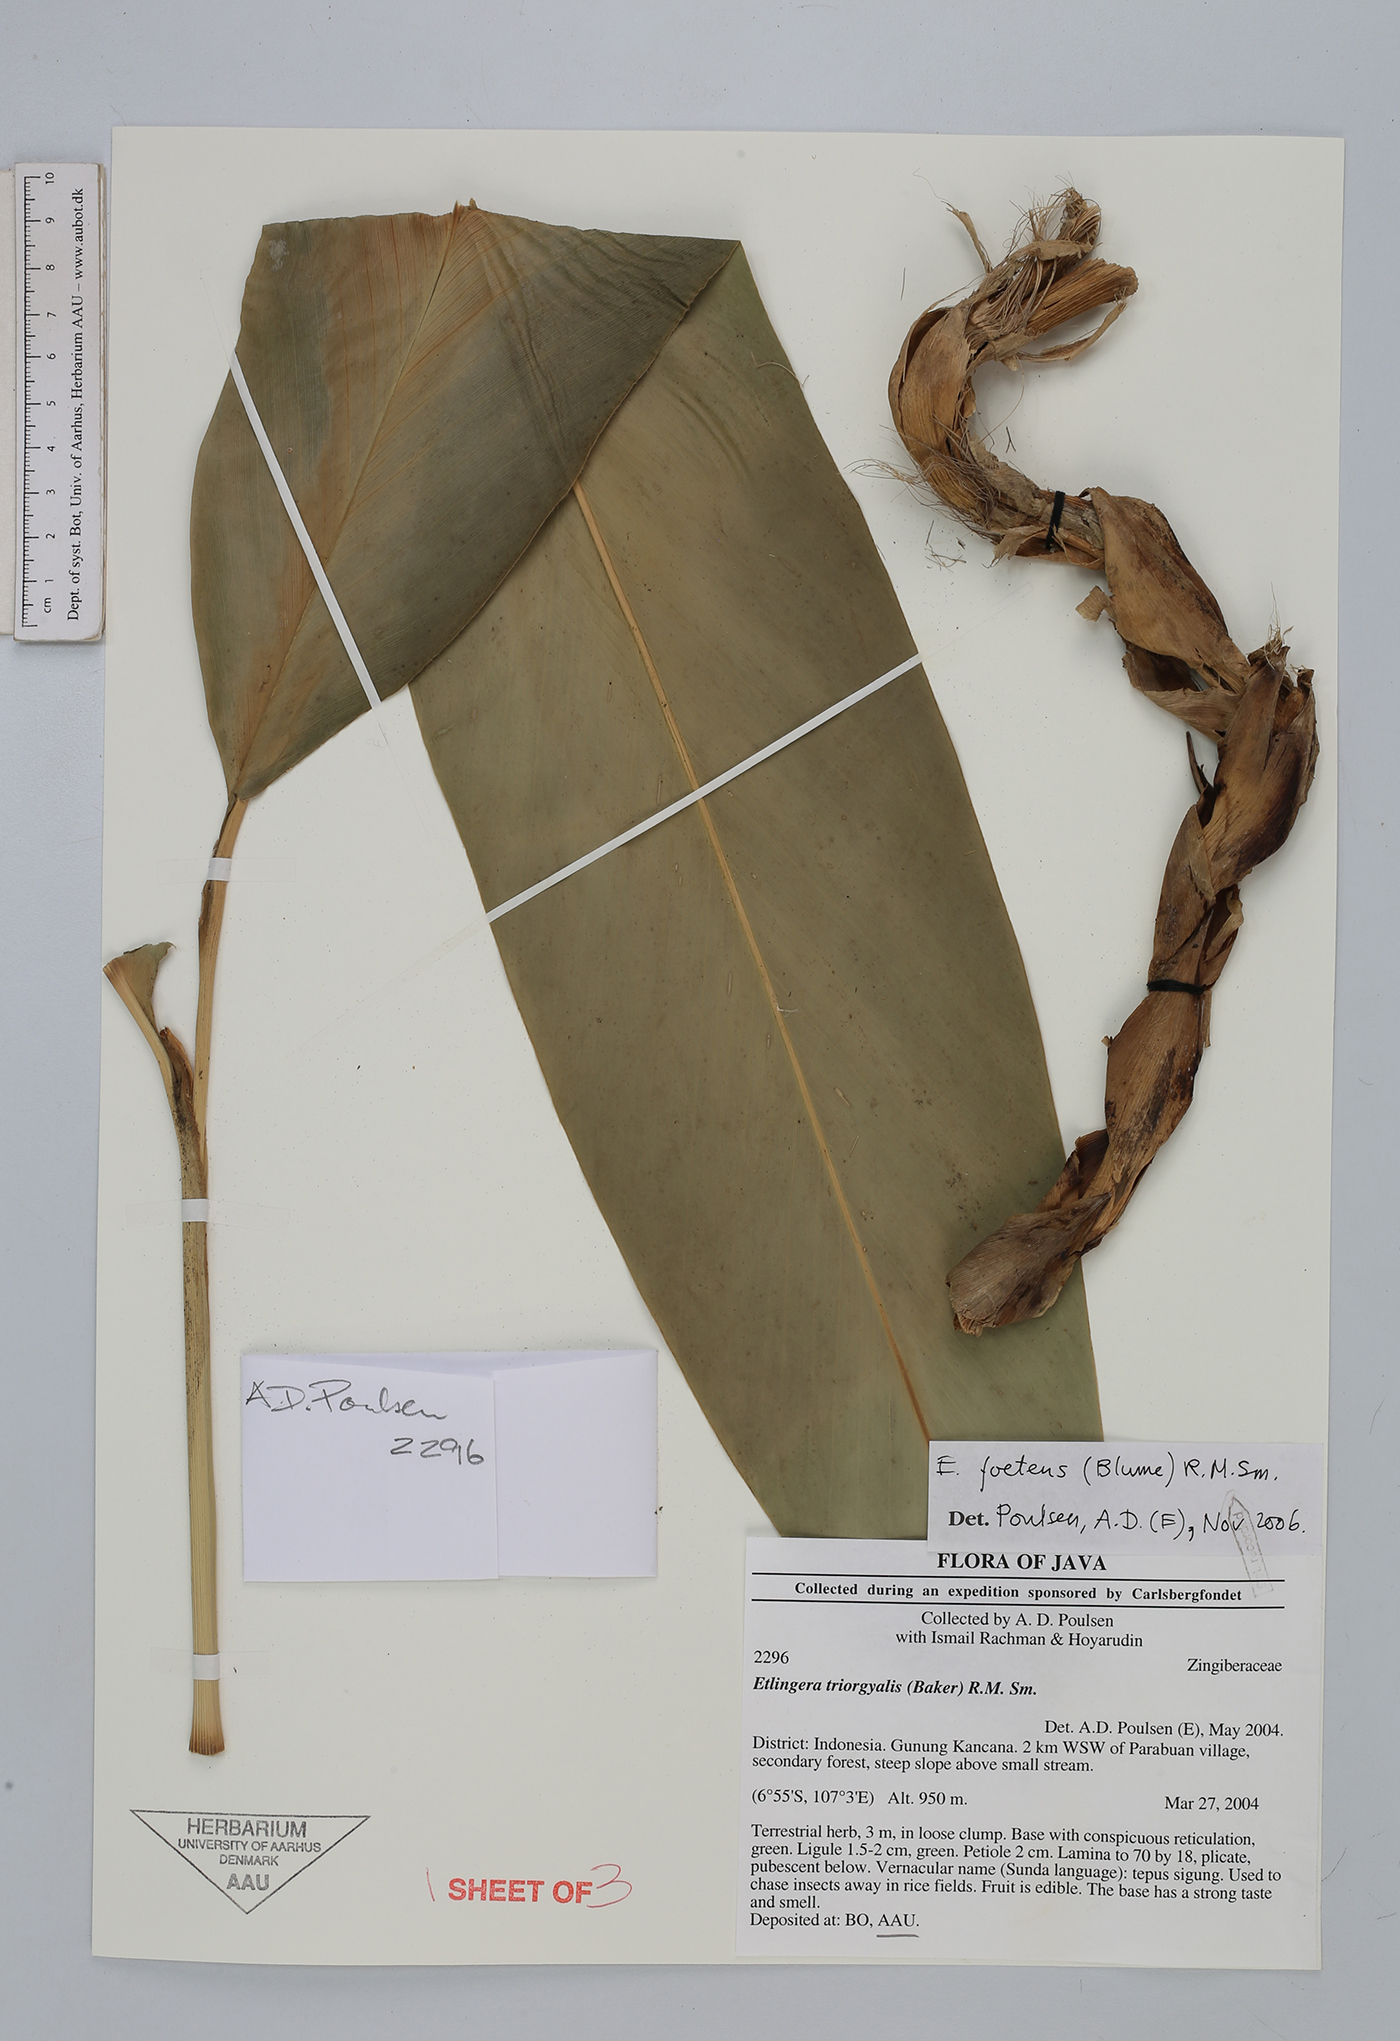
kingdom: Plantae
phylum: Tracheophyta
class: Liliopsida
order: Zingiberales
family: Zingiberaceae
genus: Etlingera
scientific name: Etlingera foetens
